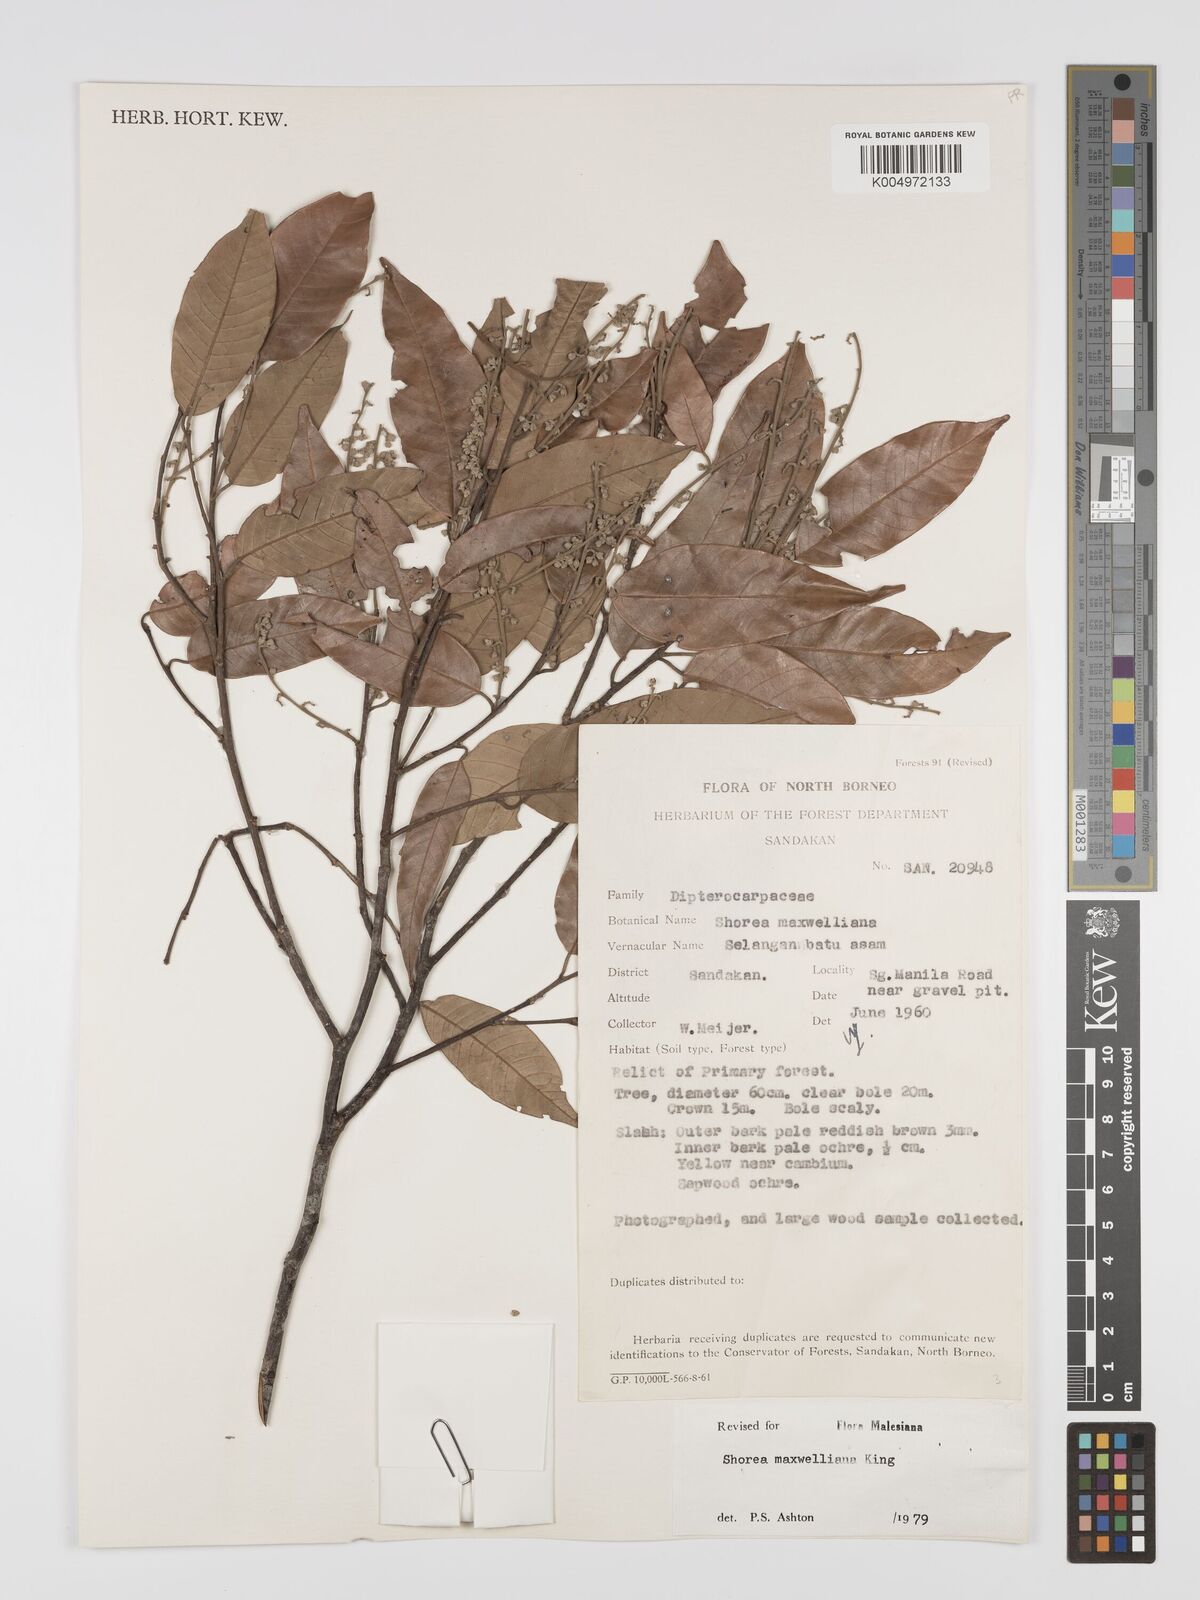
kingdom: Plantae
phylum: Tracheophyta
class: Magnoliopsida
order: Malvales
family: Dipterocarpaceae
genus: Shorea
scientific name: Shorea maxwelliana
